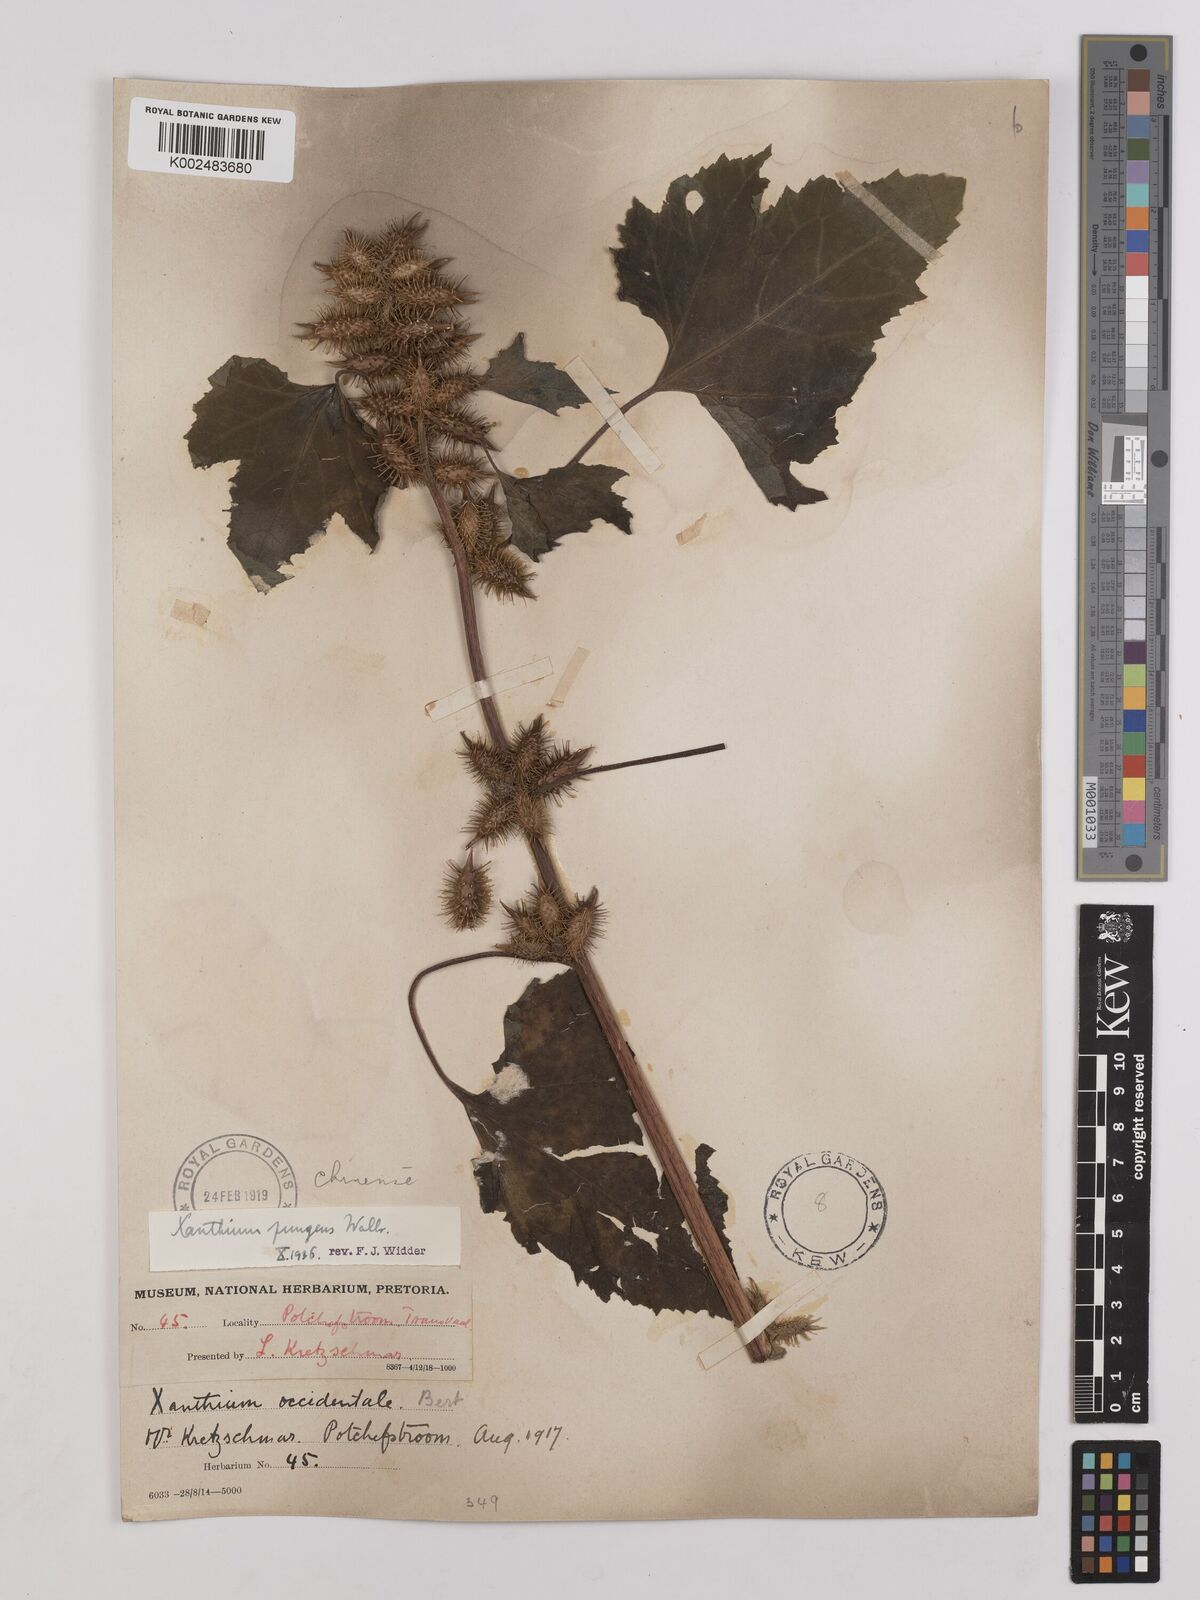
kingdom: Plantae
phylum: Tracheophyta
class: Magnoliopsida
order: Asterales
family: Asteraceae
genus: Xanthium
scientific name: Xanthium occidentale
